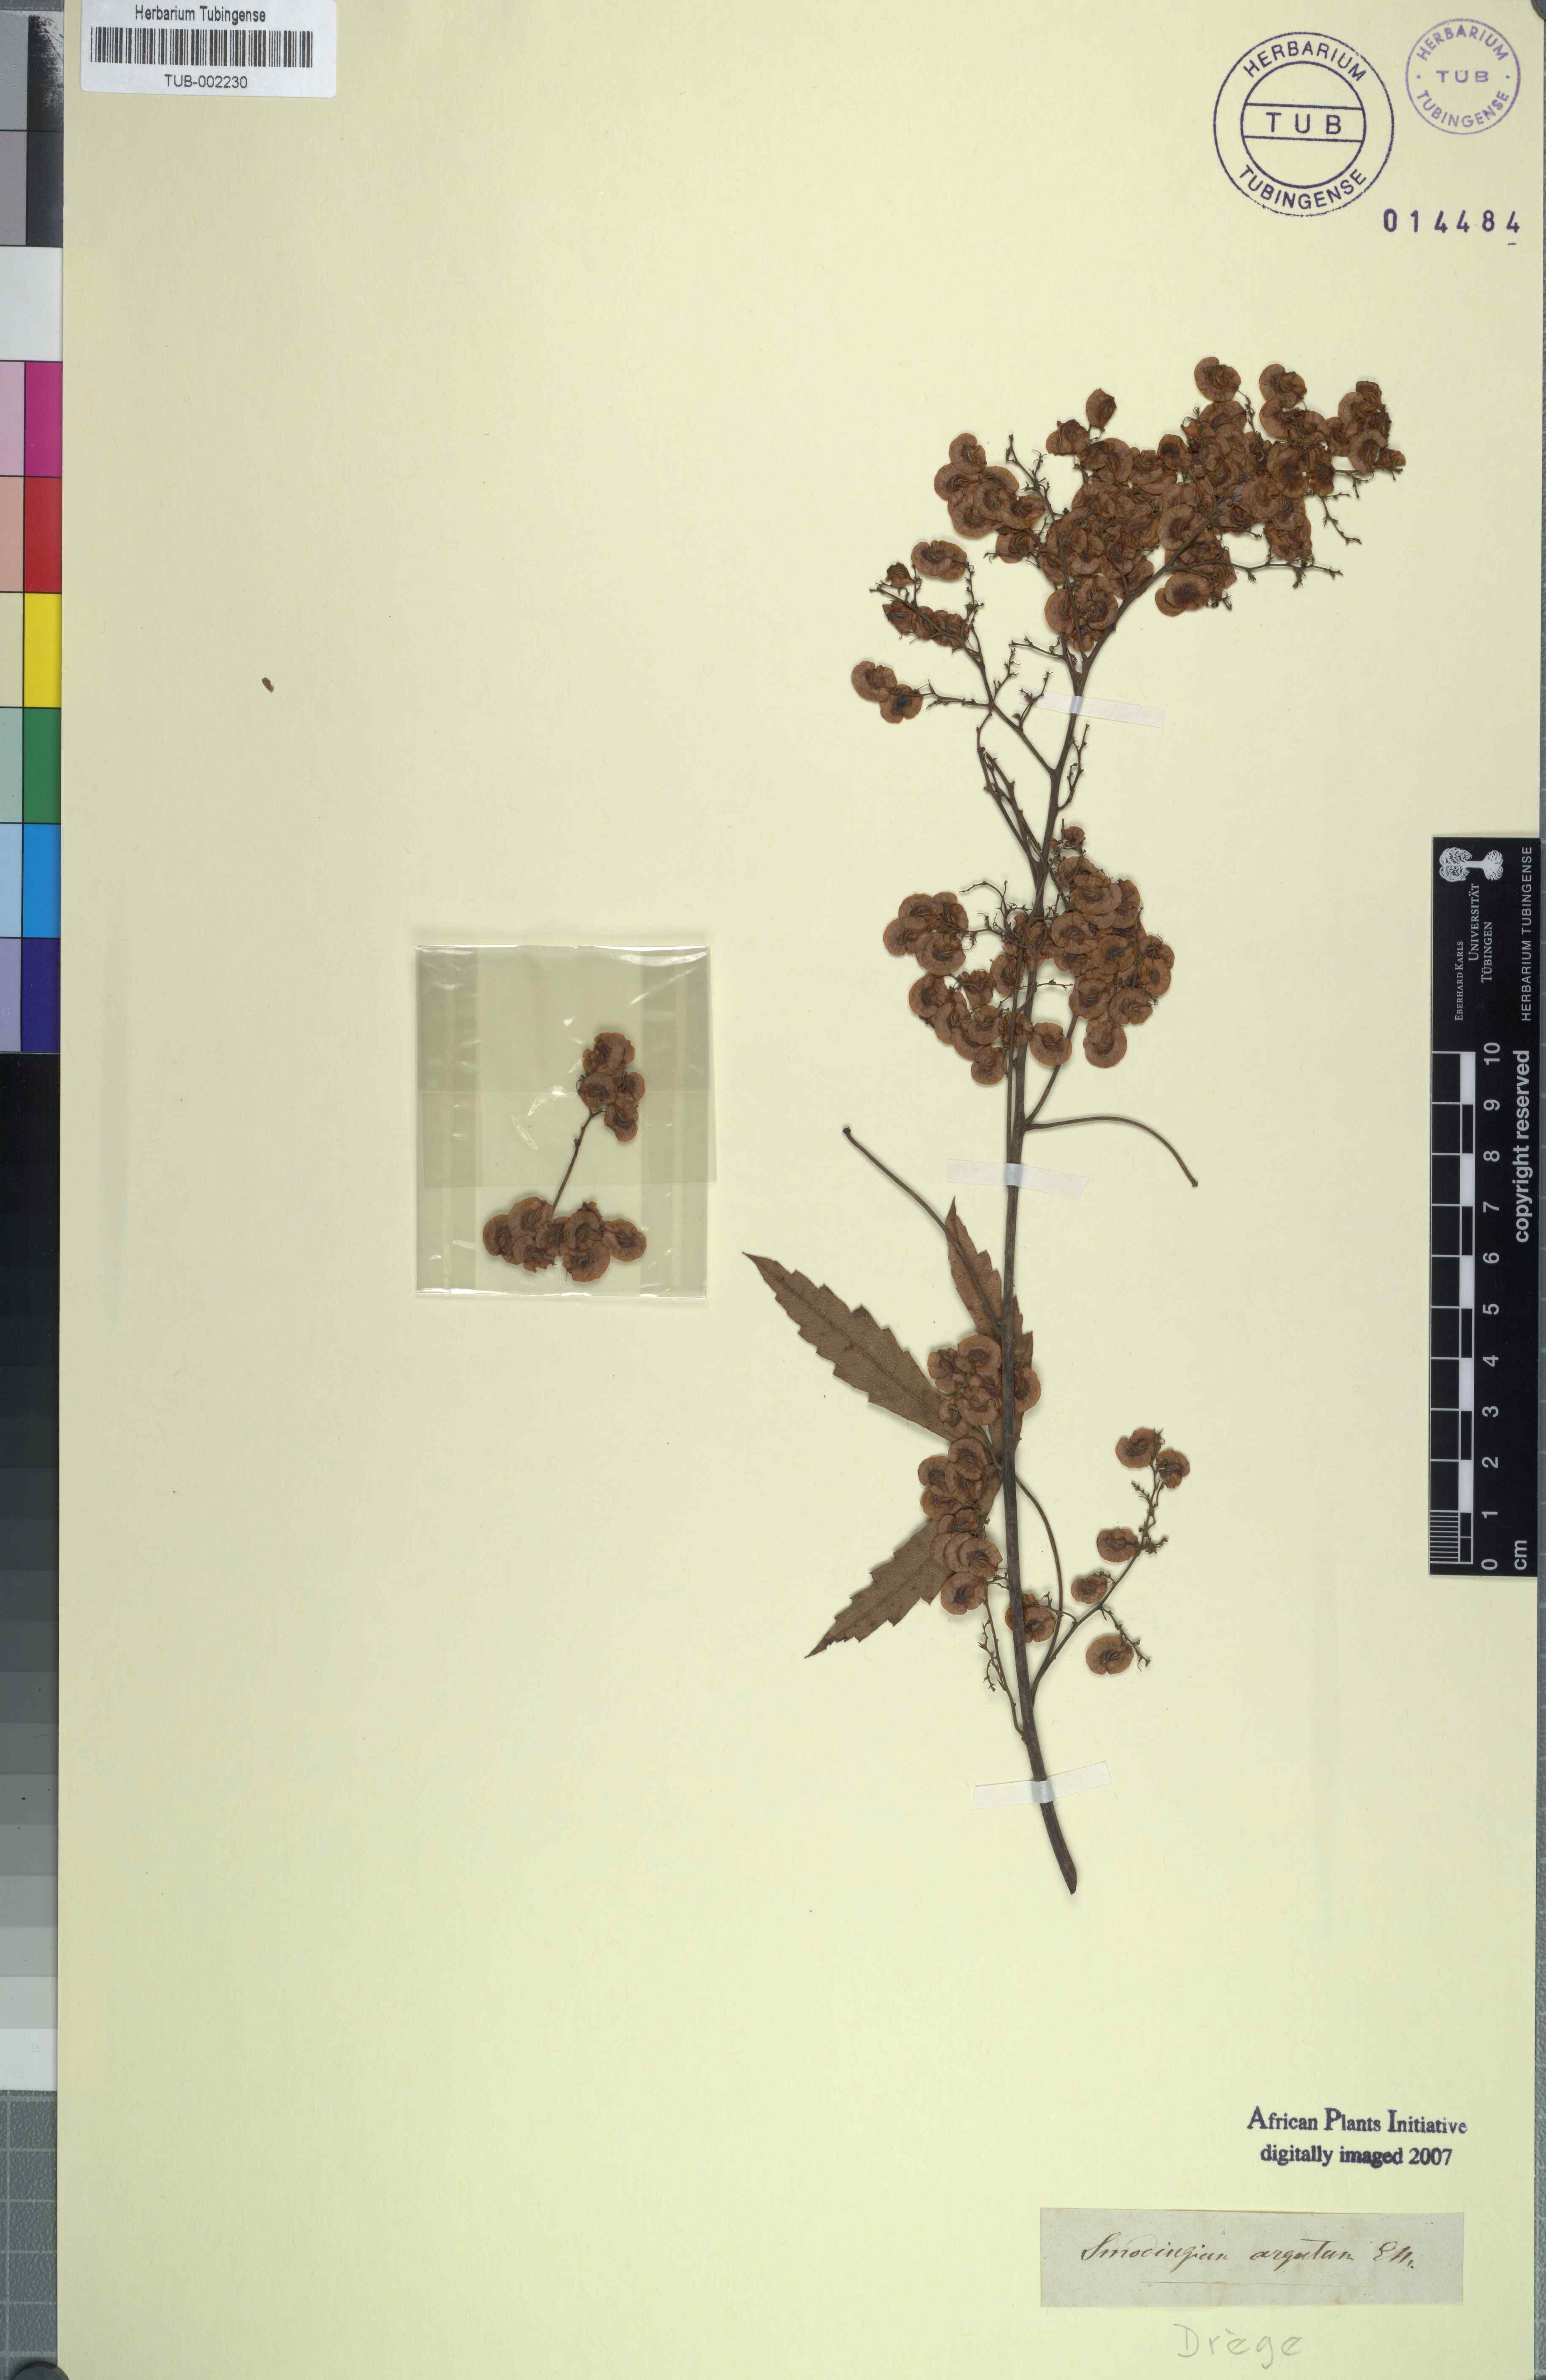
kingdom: Plantae
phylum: Tracheophyta
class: Magnoliopsida
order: Sapindales
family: Anacardiaceae
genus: Smodingium
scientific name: Smodingium argutum
